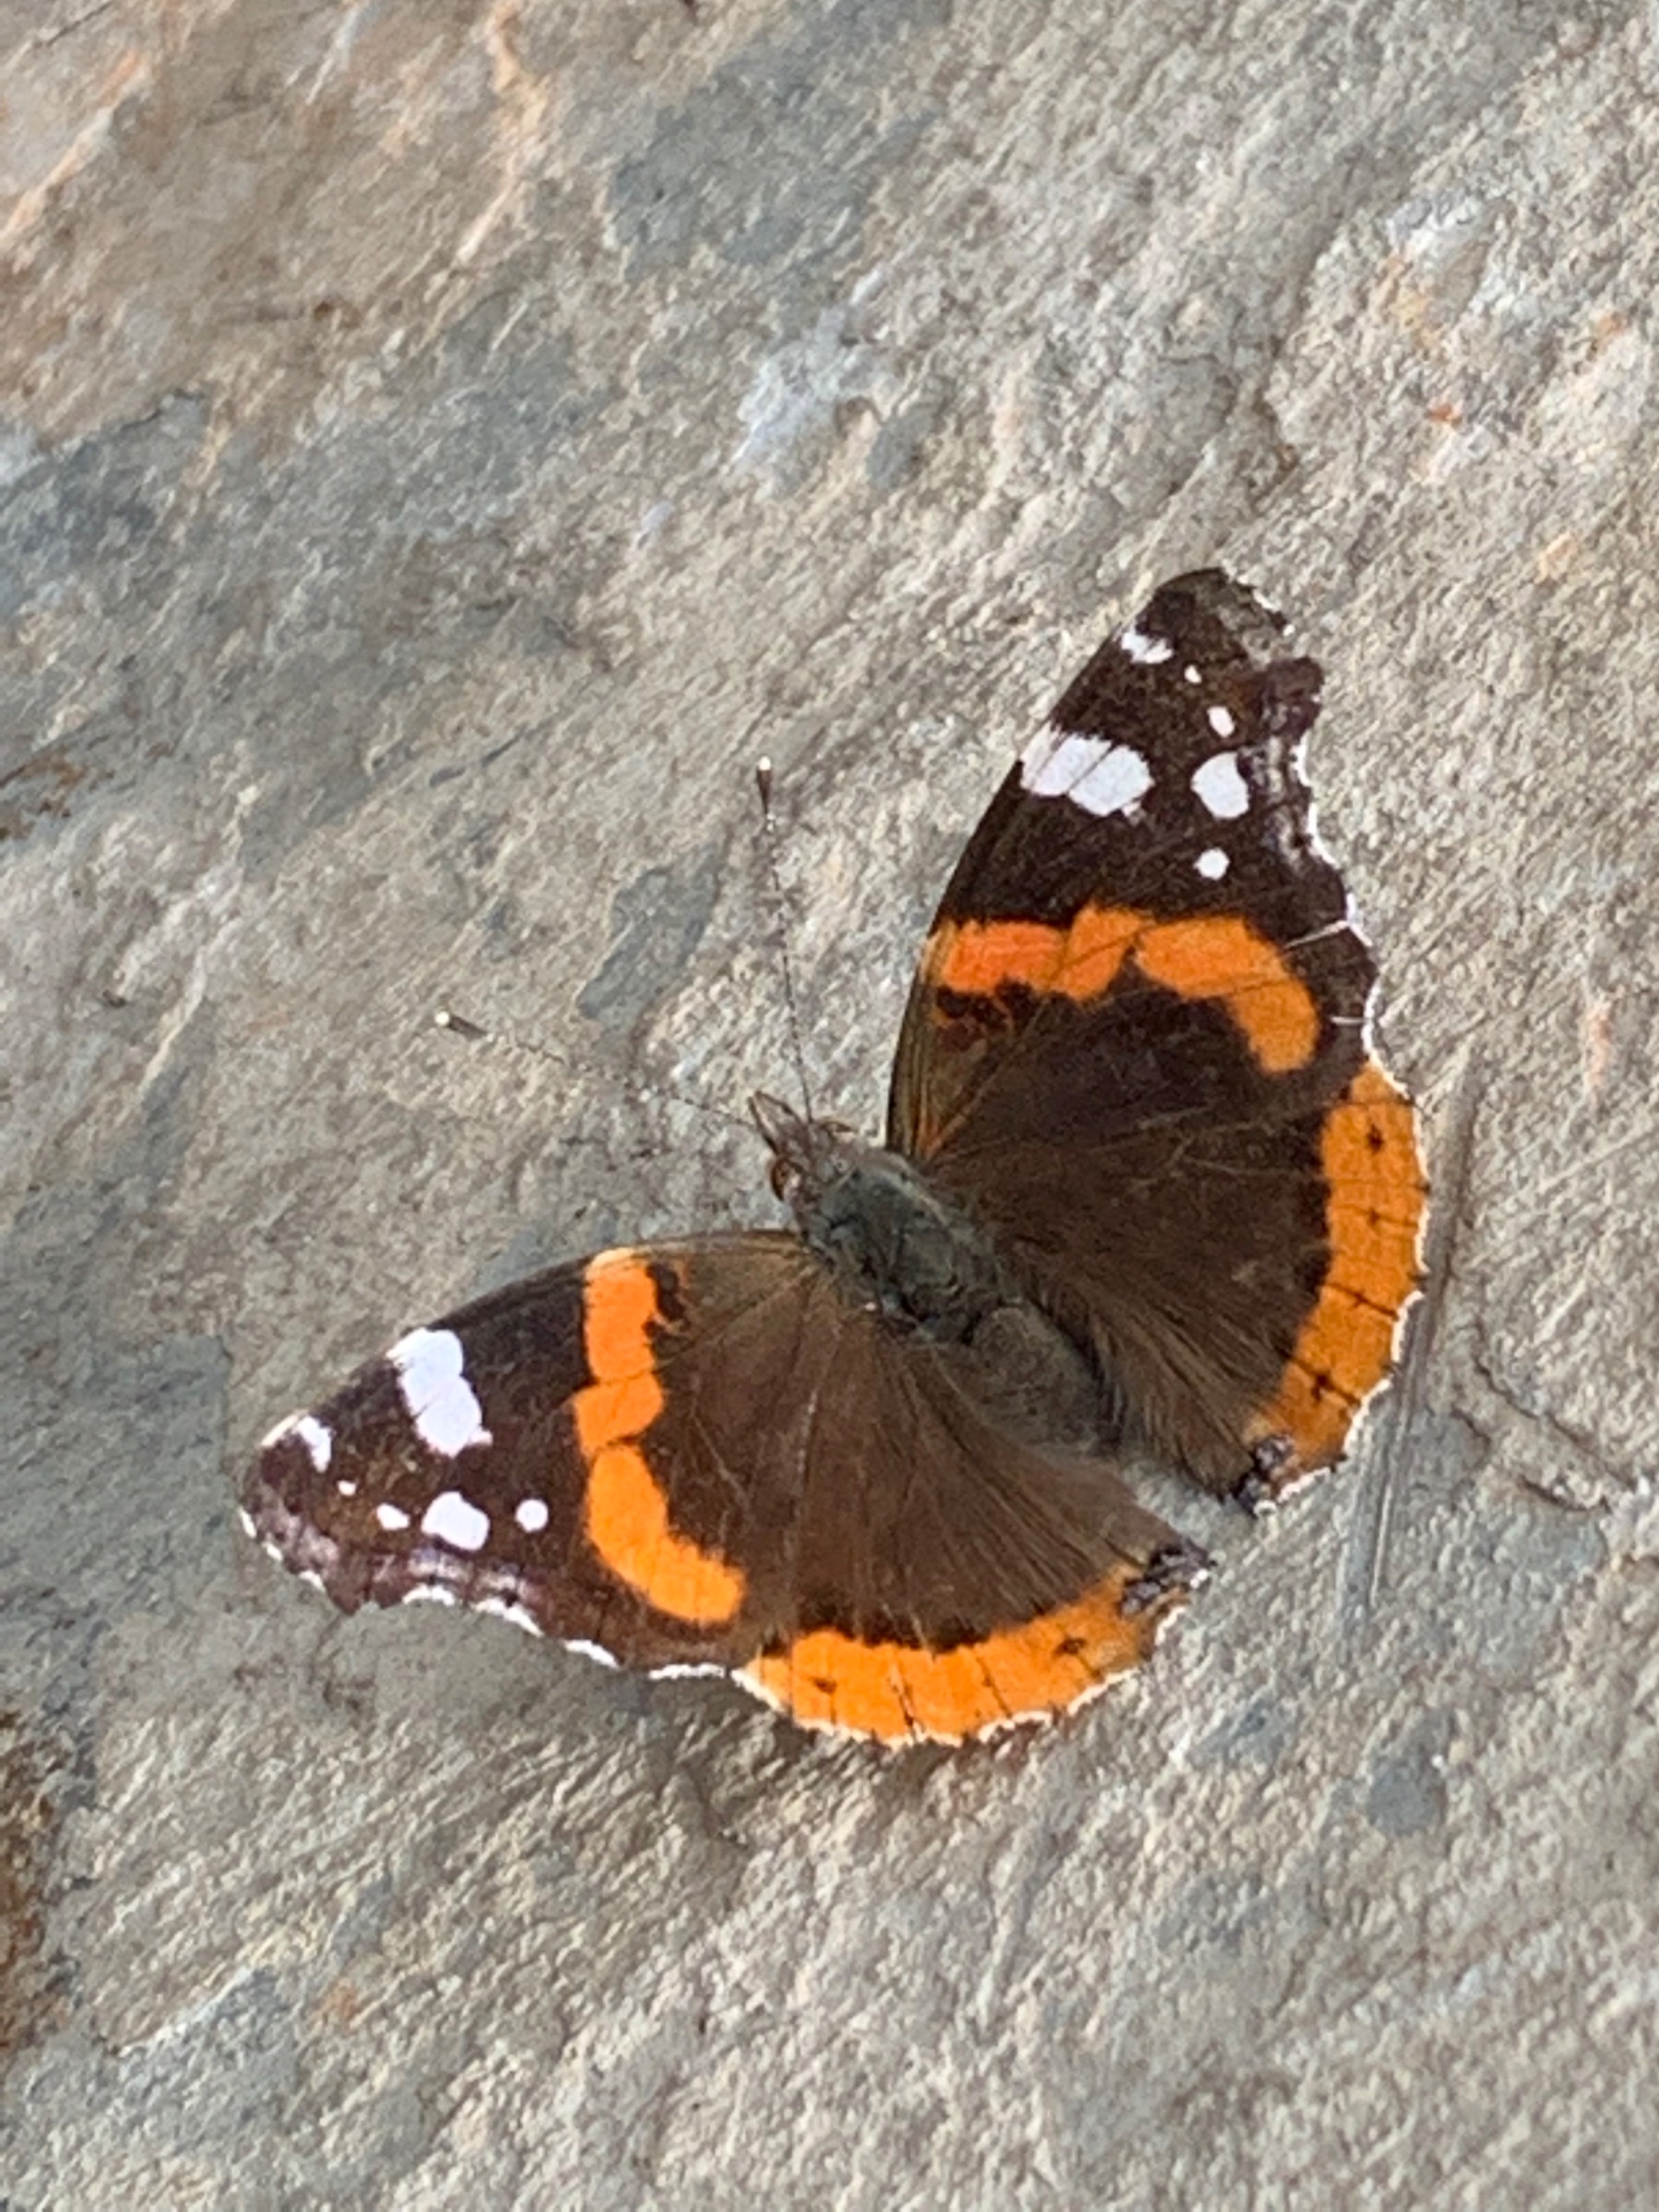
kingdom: Animalia
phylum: Arthropoda
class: Insecta
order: Lepidoptera
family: Nymphalidae
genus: Vanessa
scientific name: Vanessa atalanta
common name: Admiral
